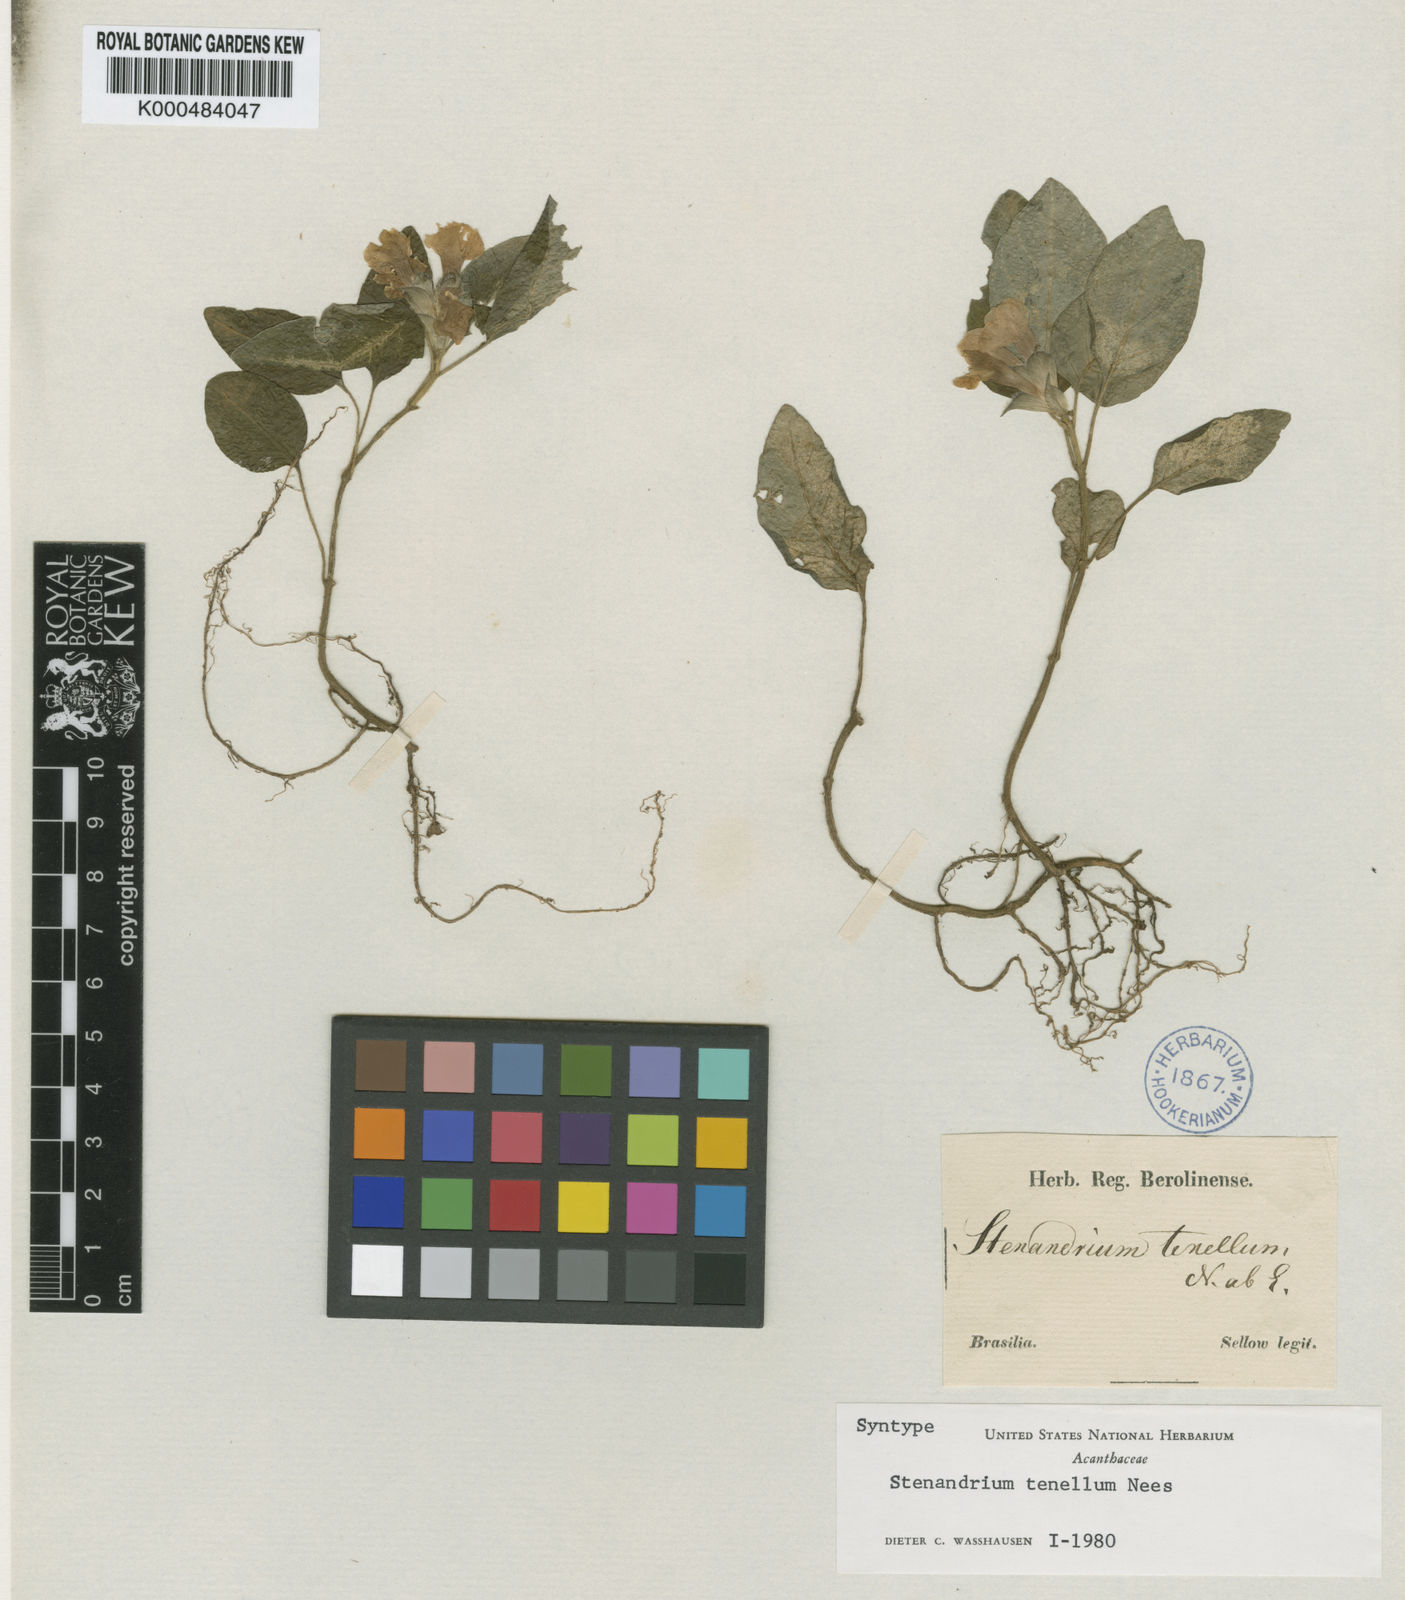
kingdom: Plantae
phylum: Tracheophyta
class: Magnoliopsida
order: Lamiales
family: Acanthaceae
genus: Stenandrium
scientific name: Stenandrium tenellum
